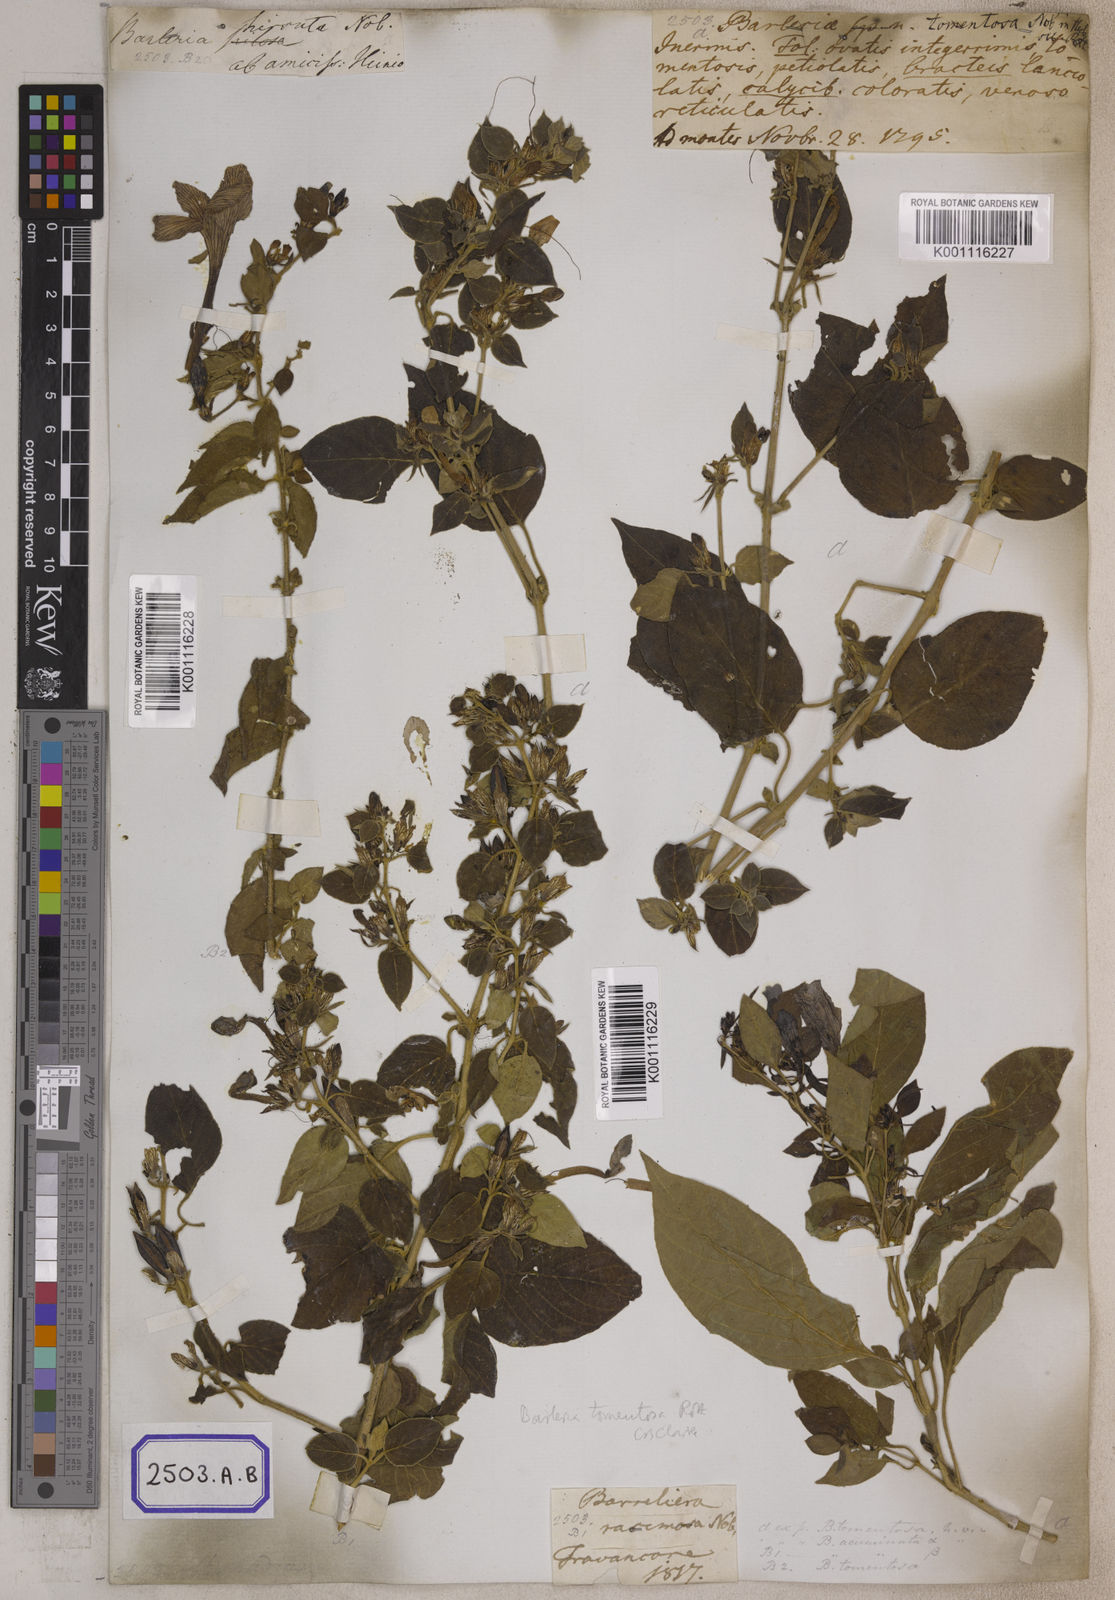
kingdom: Plantae
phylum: Tracheophyta
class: Magnoliopsida
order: Lamiales
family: Acanthaceae
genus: Barleria
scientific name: Barleria
